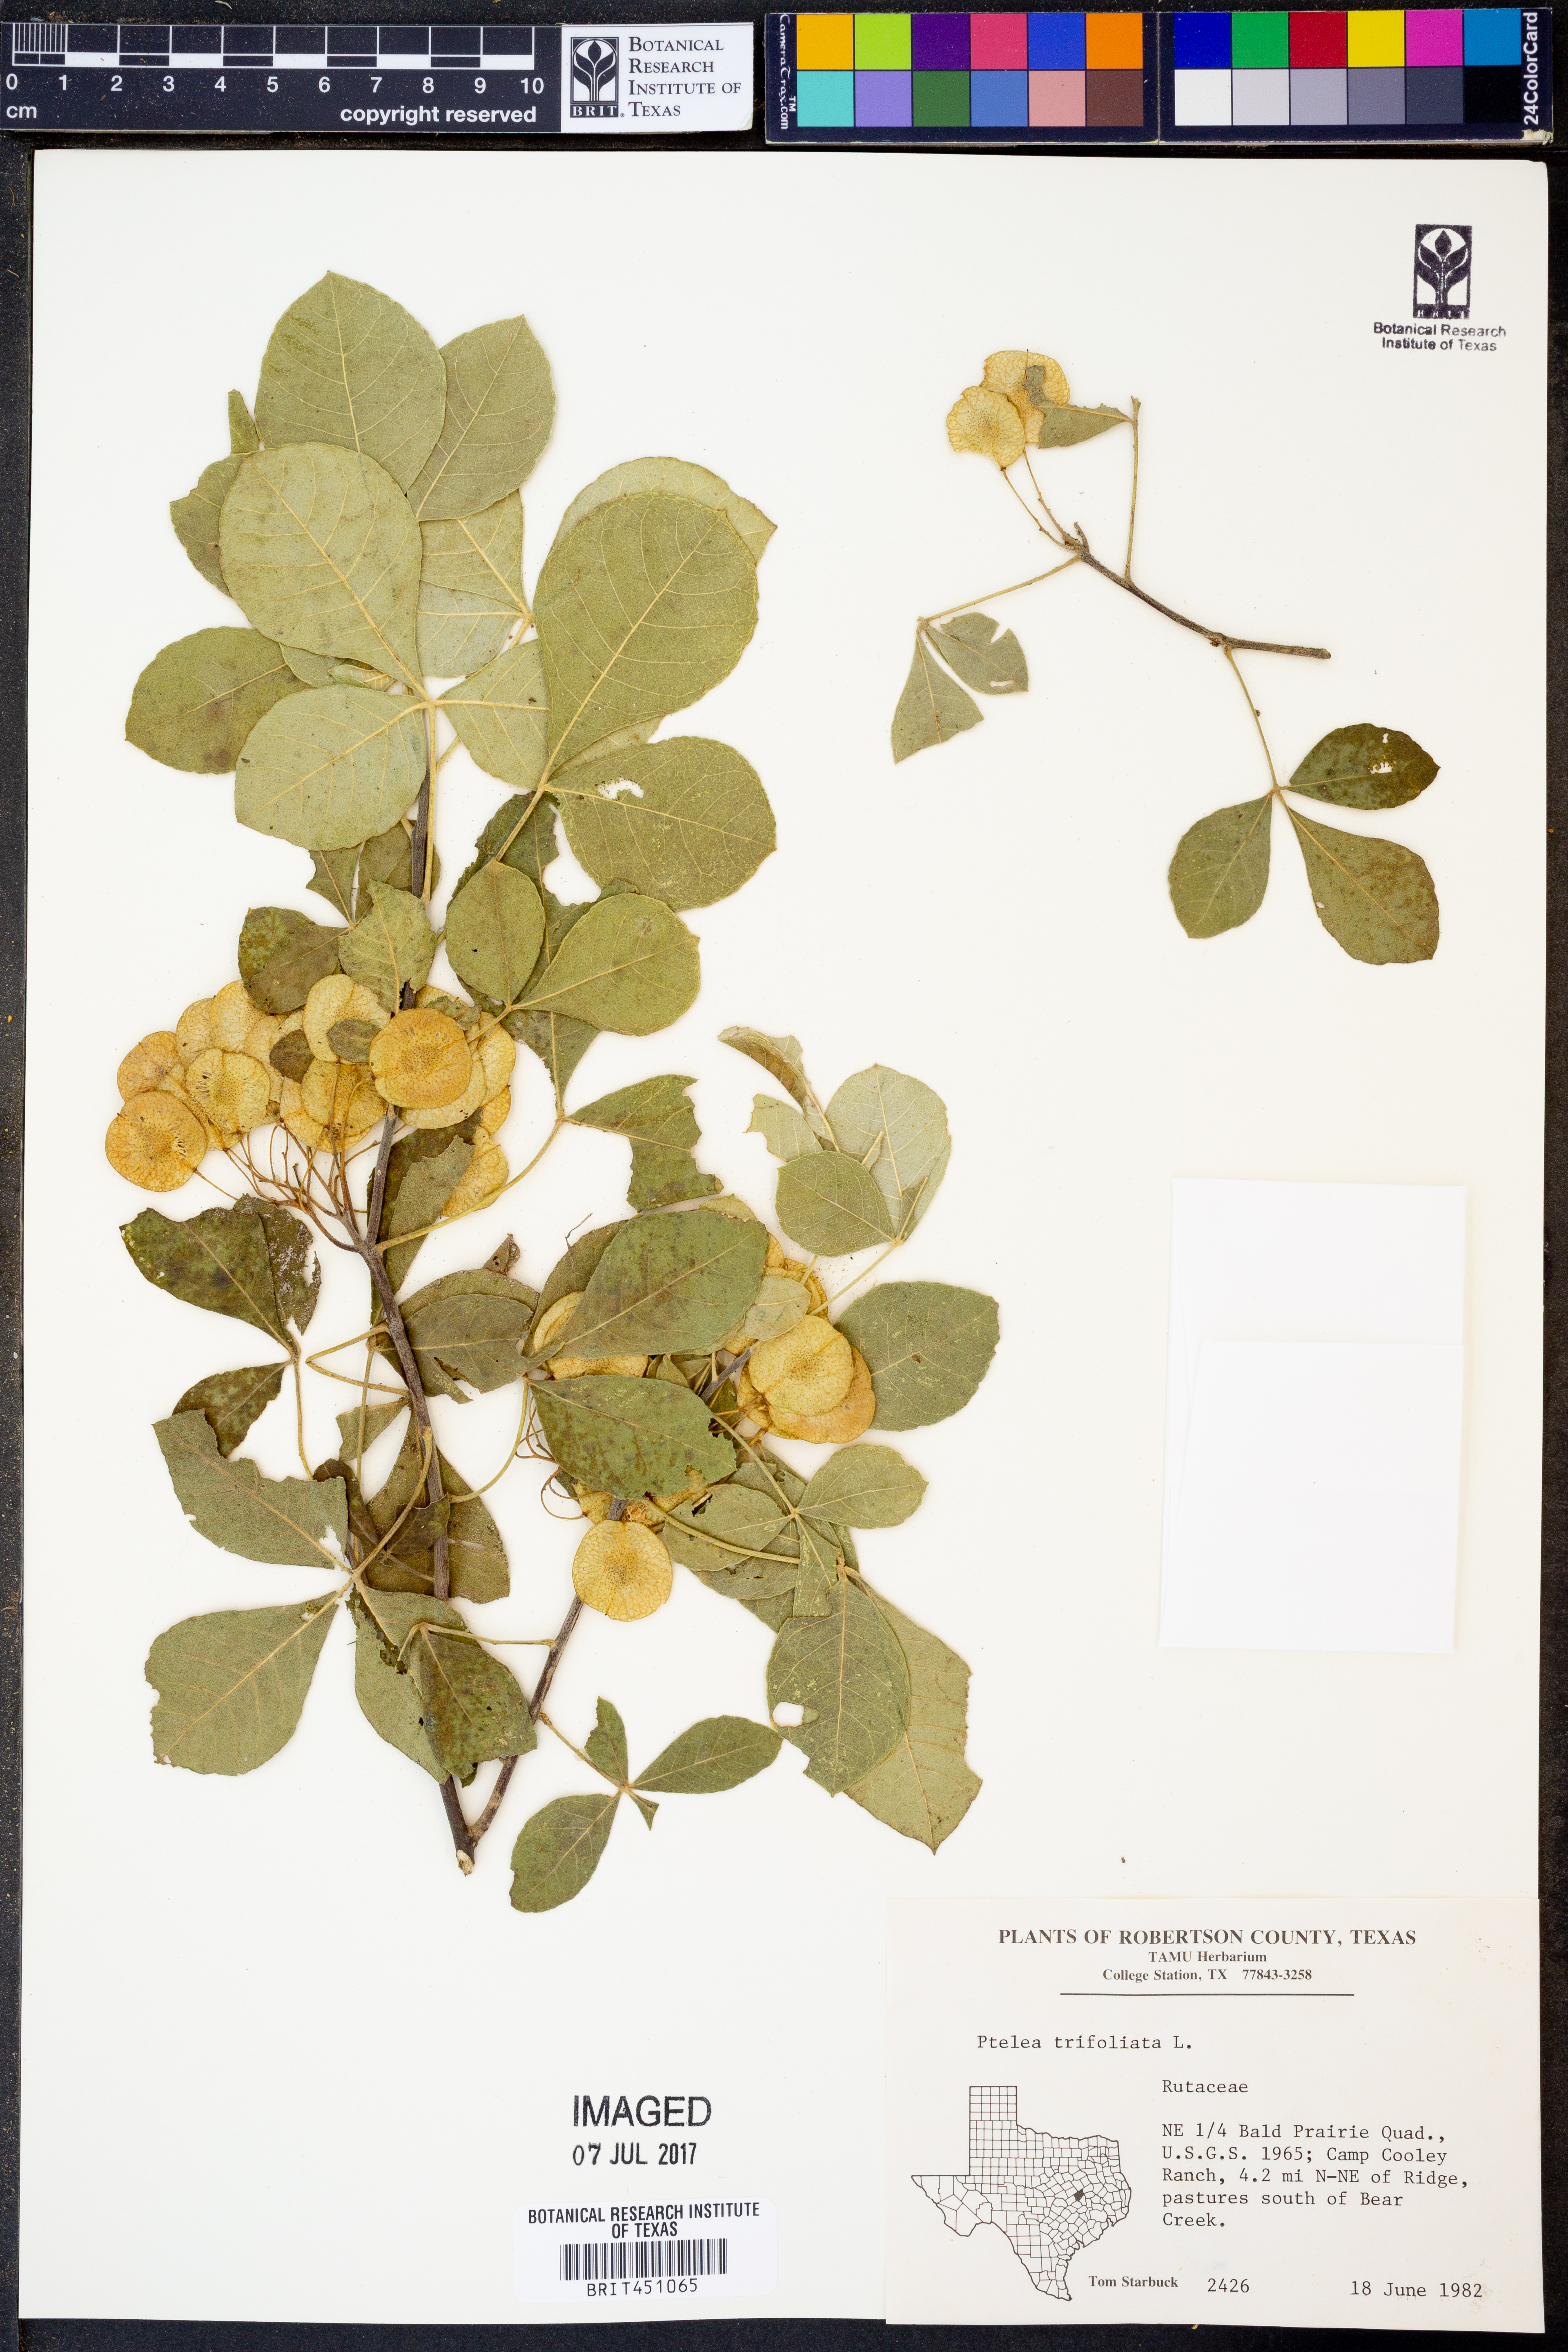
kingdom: Plantae
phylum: Tracheophyta
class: Magnoliopsida
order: Sapindales
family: Rutaceae
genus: Ptelea
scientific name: Ptelea trifoliata
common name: Common hop-tree
